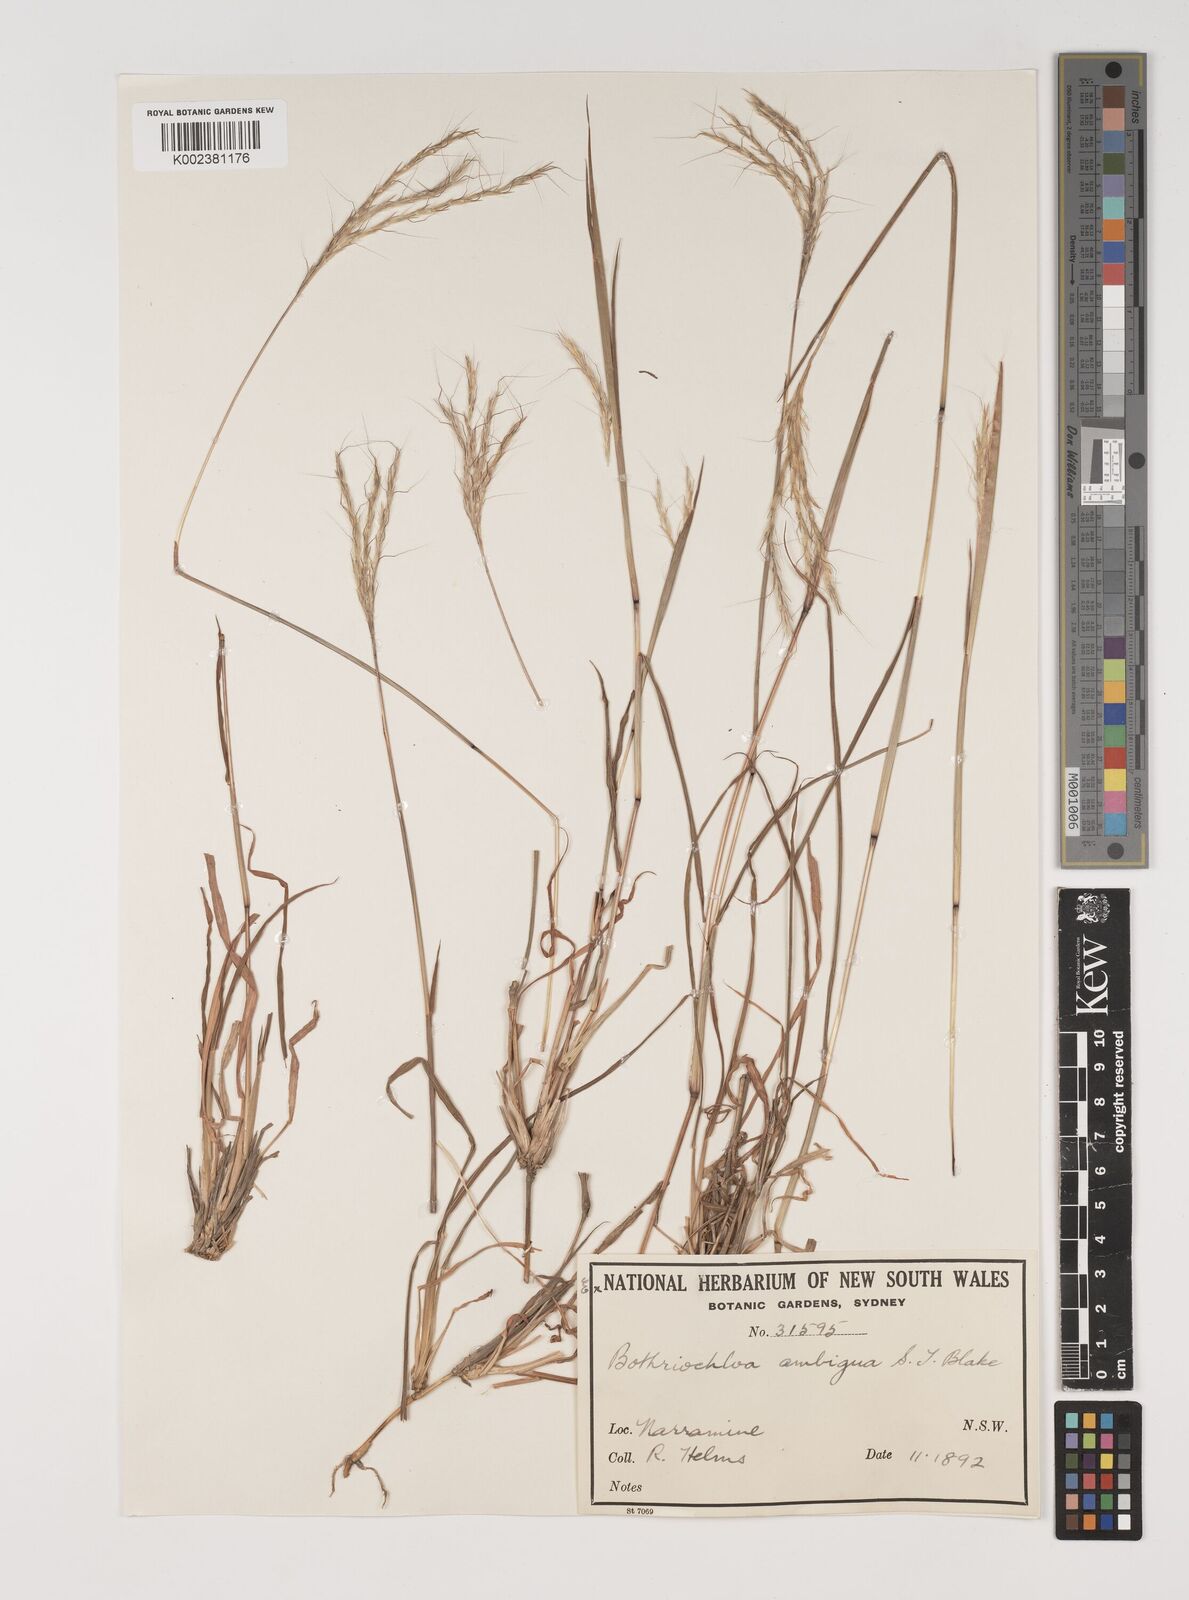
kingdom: Plantae
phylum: Tracheophyta
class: Liliopsida
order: Poales
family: Poaceae
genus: Bothriochloa
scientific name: Bothriochloa macra
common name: Pitted beard grass
